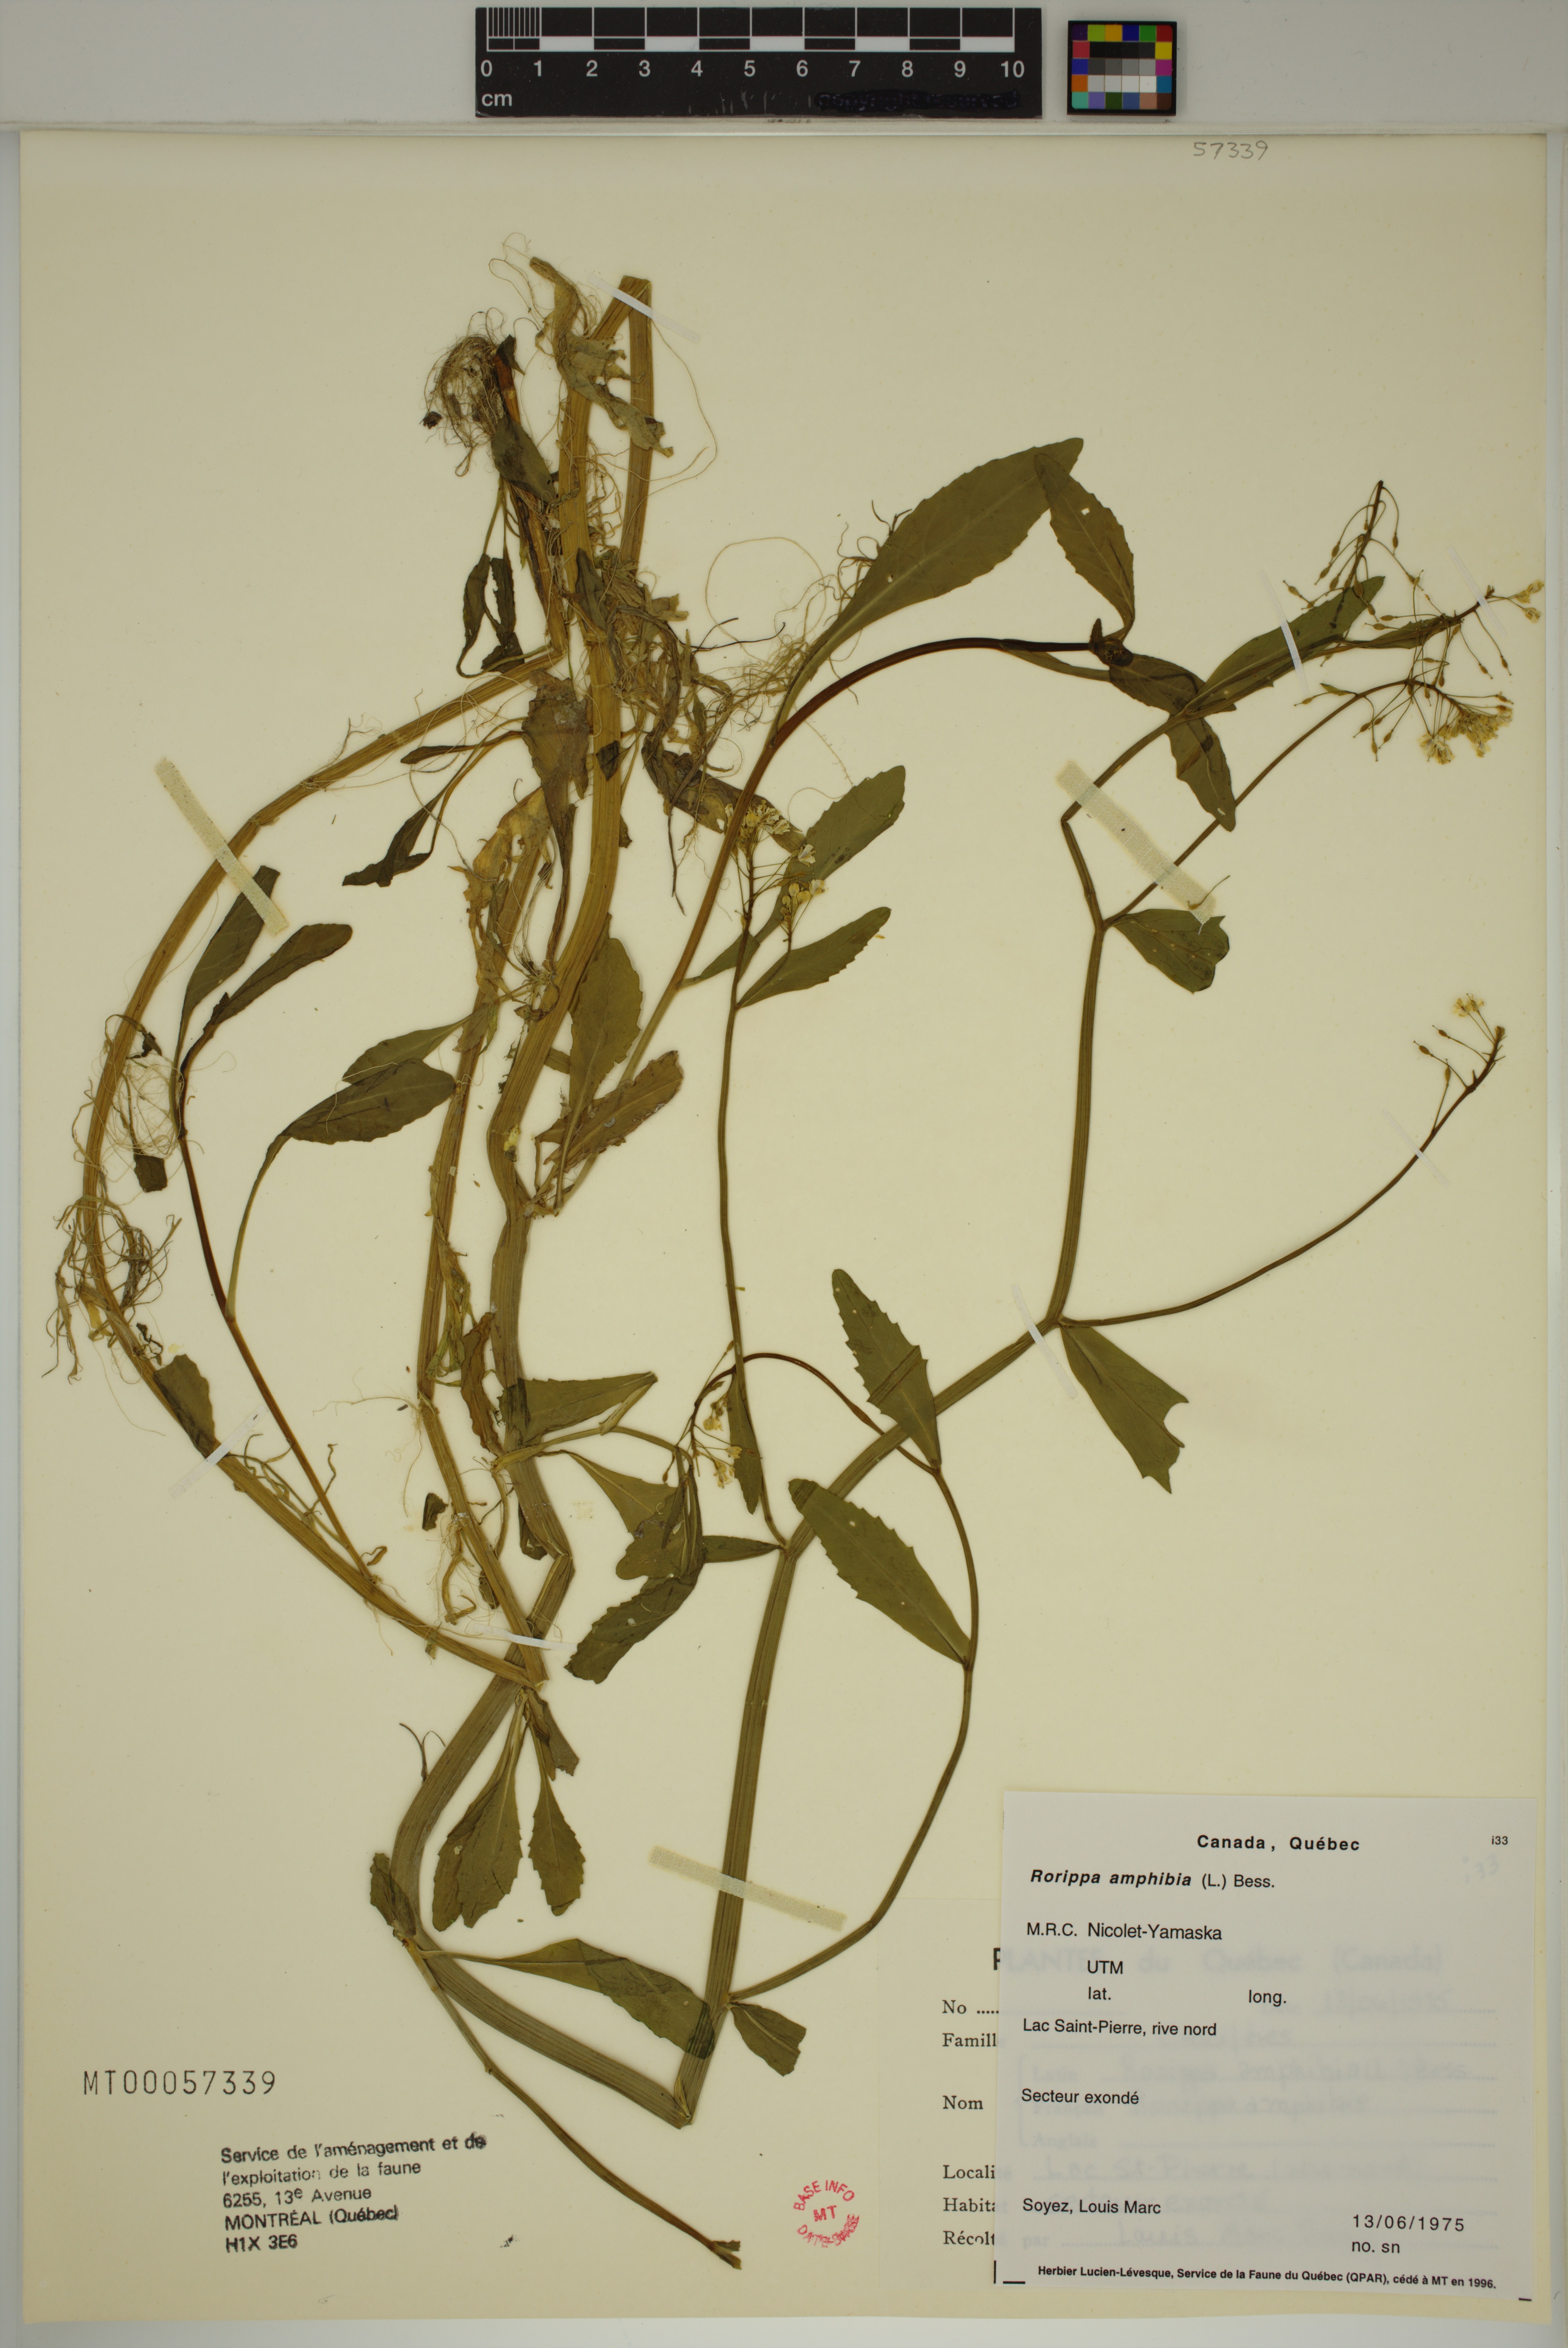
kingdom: Plantae
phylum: Tracheophyta
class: Magnoliopsida
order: Brassicales
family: Brassicaceae
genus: Rorippa
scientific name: Rorippa amphibia
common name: Great yellow-cress
